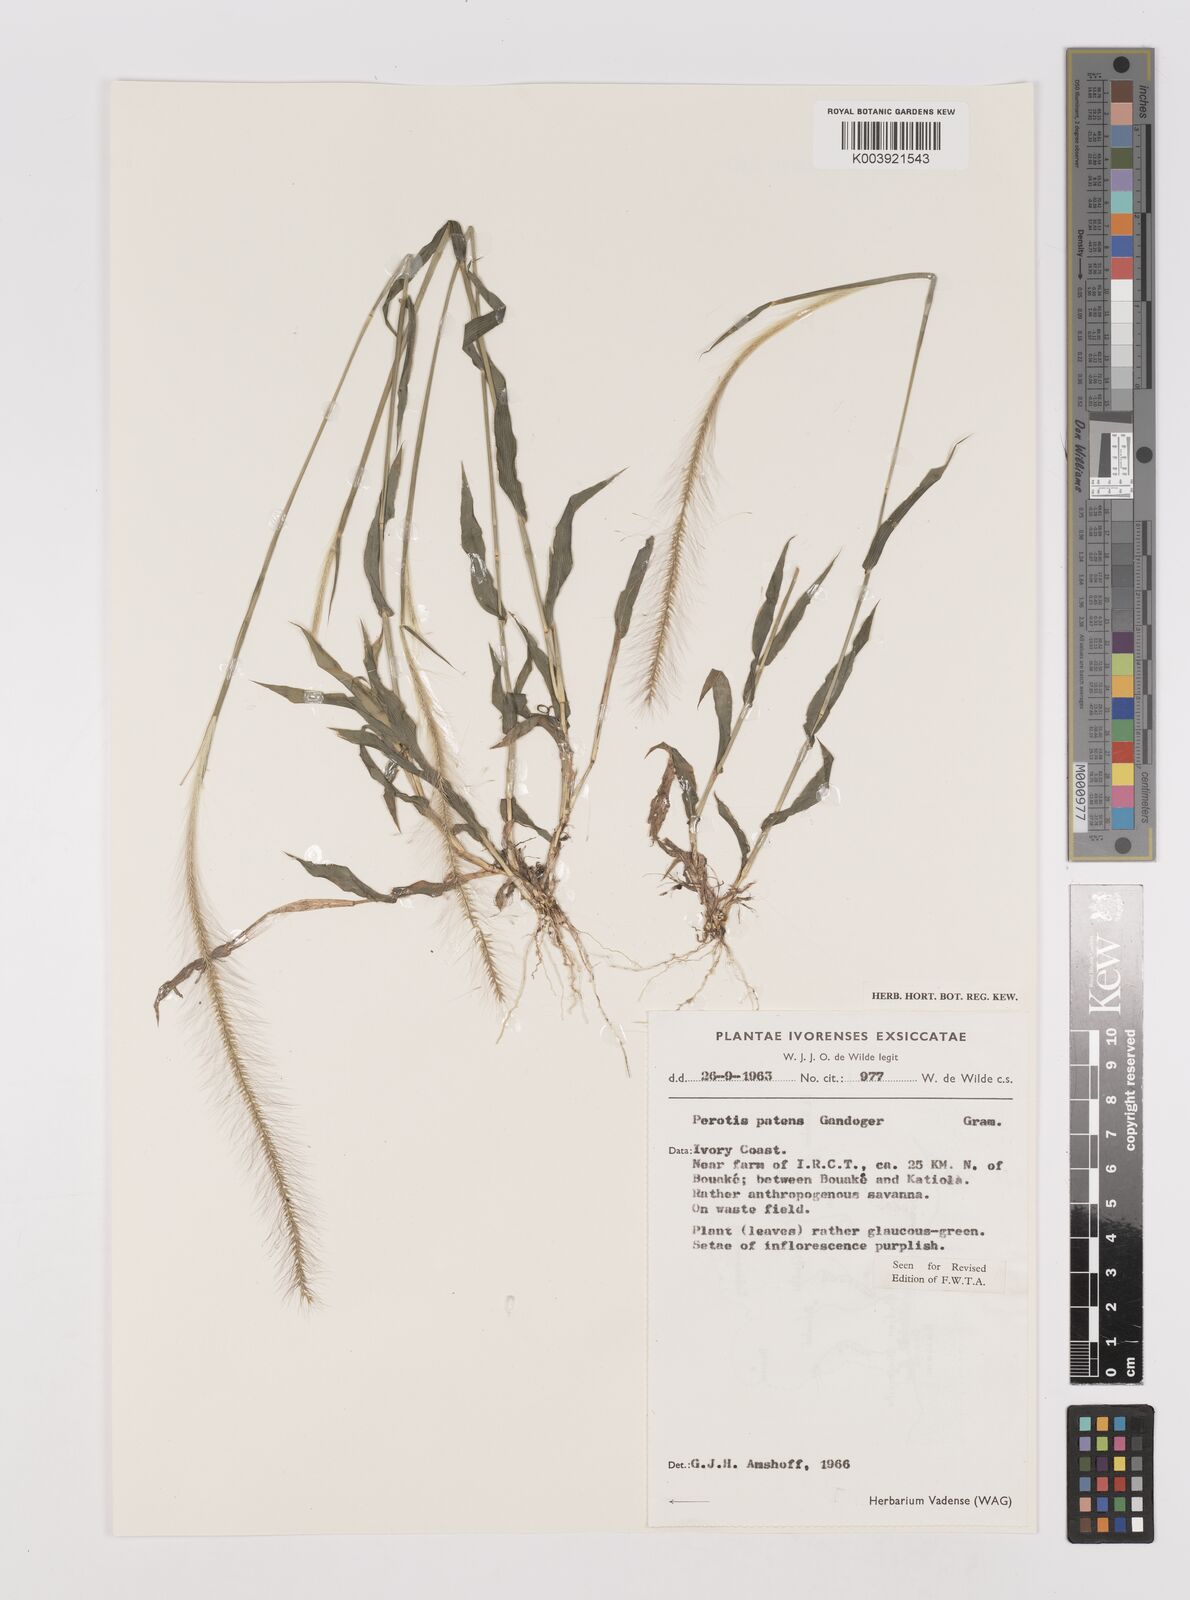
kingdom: Plantae
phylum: Tracheophyta
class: Liliopsida
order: Poales
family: Poaceae
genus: Perotis
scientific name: Perotis patens
